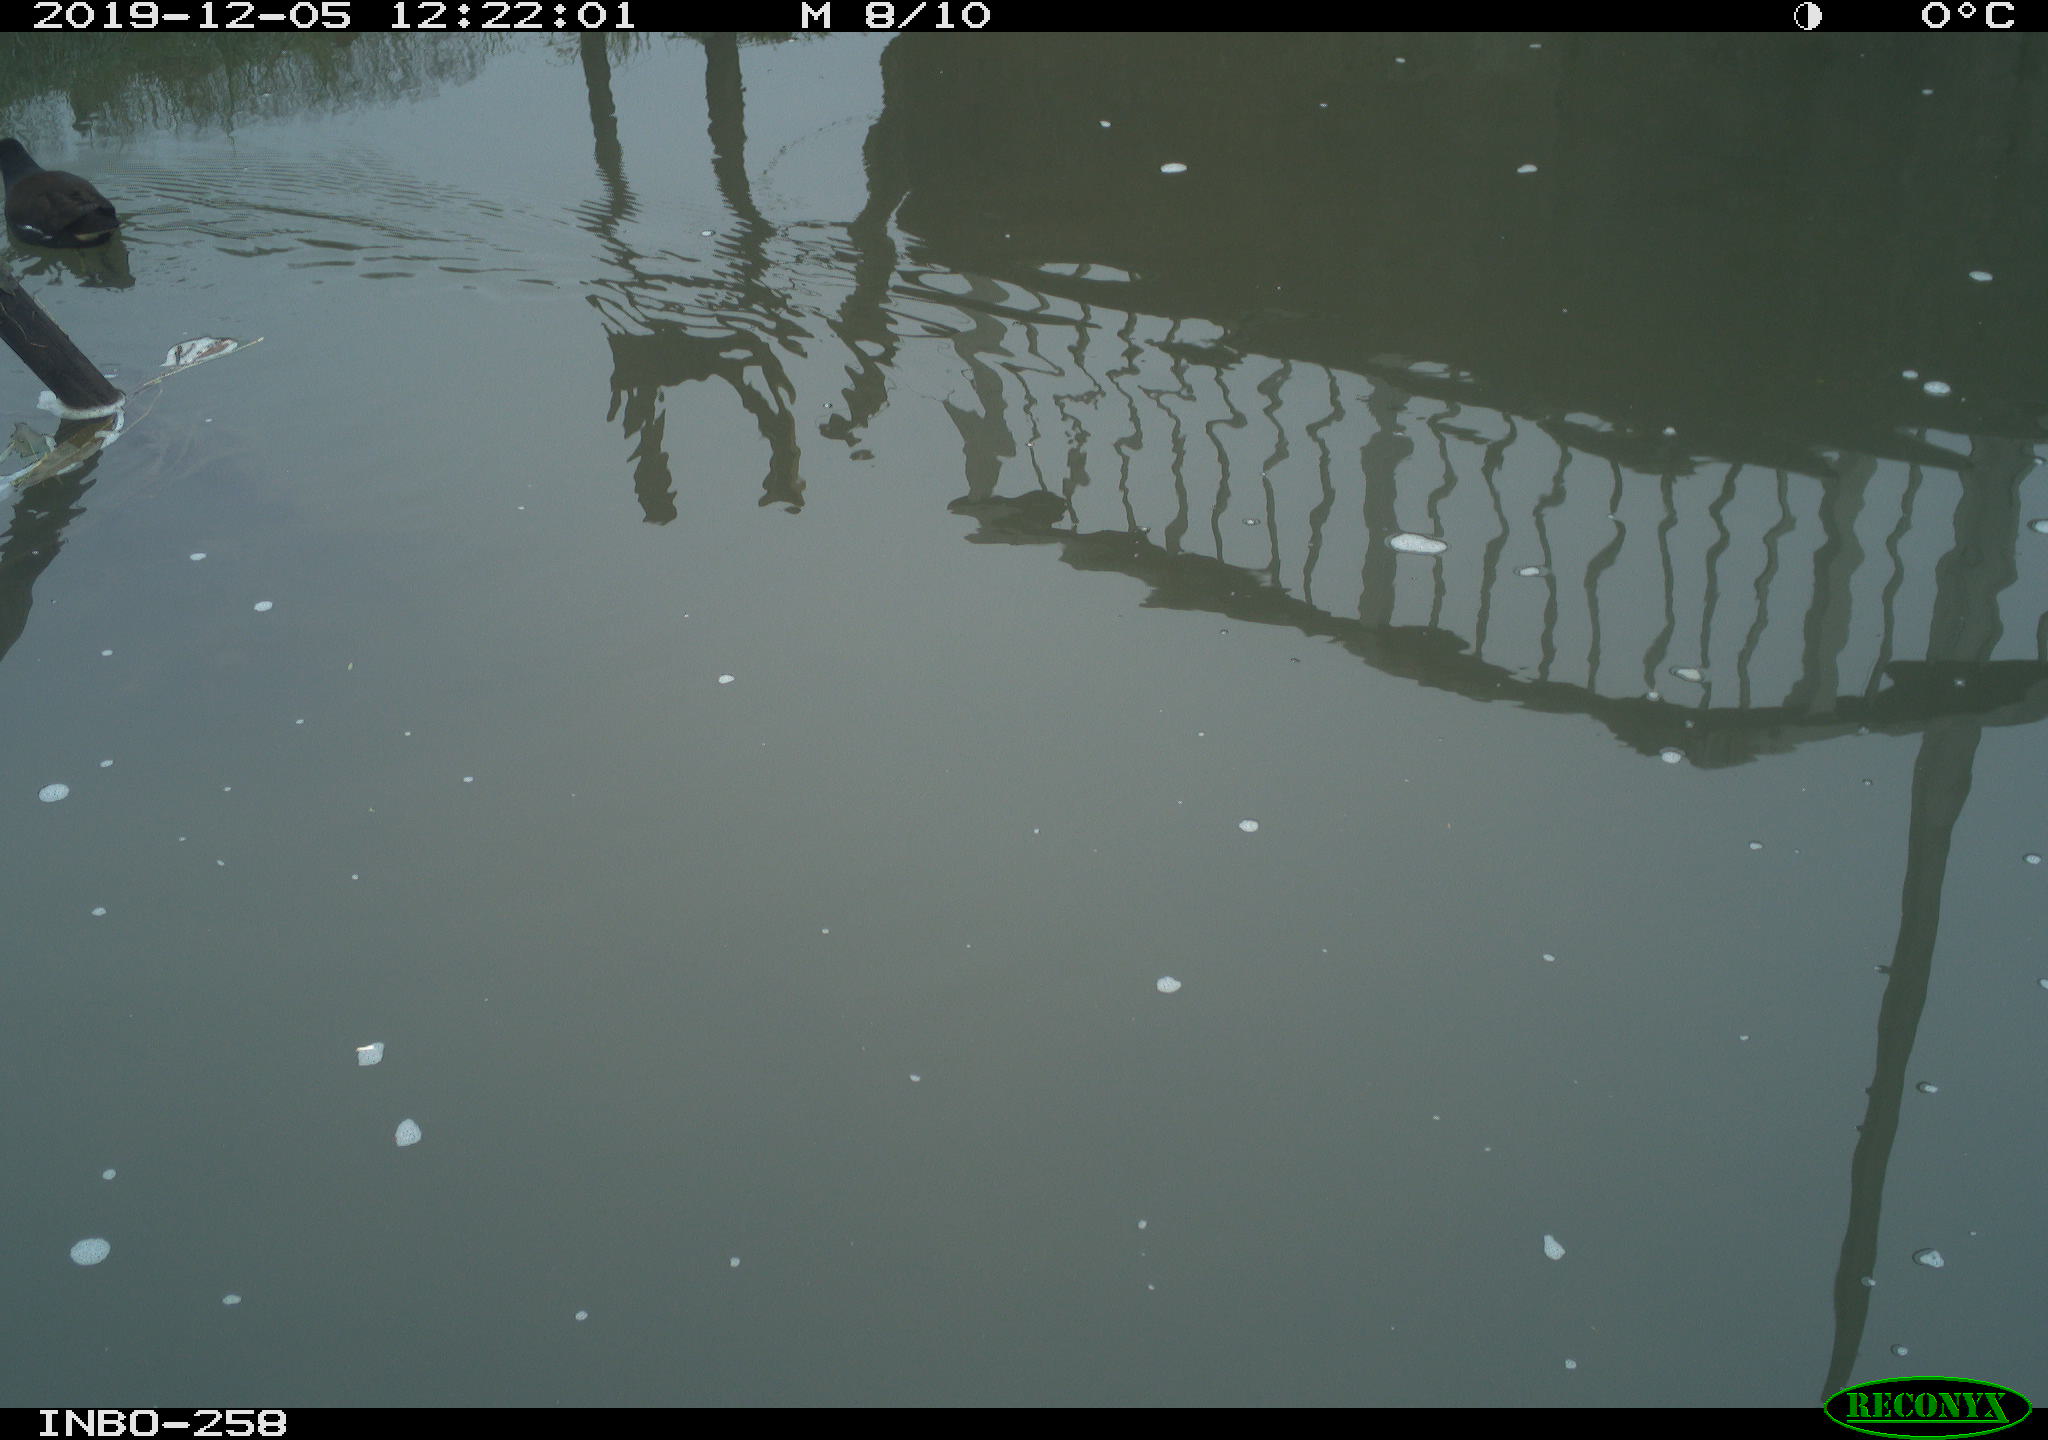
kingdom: Animalia
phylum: Chordata
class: Aves
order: Gruiformes
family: Rallidae
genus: Gallinula
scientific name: Gallinula chloropus
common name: Common moorhen
